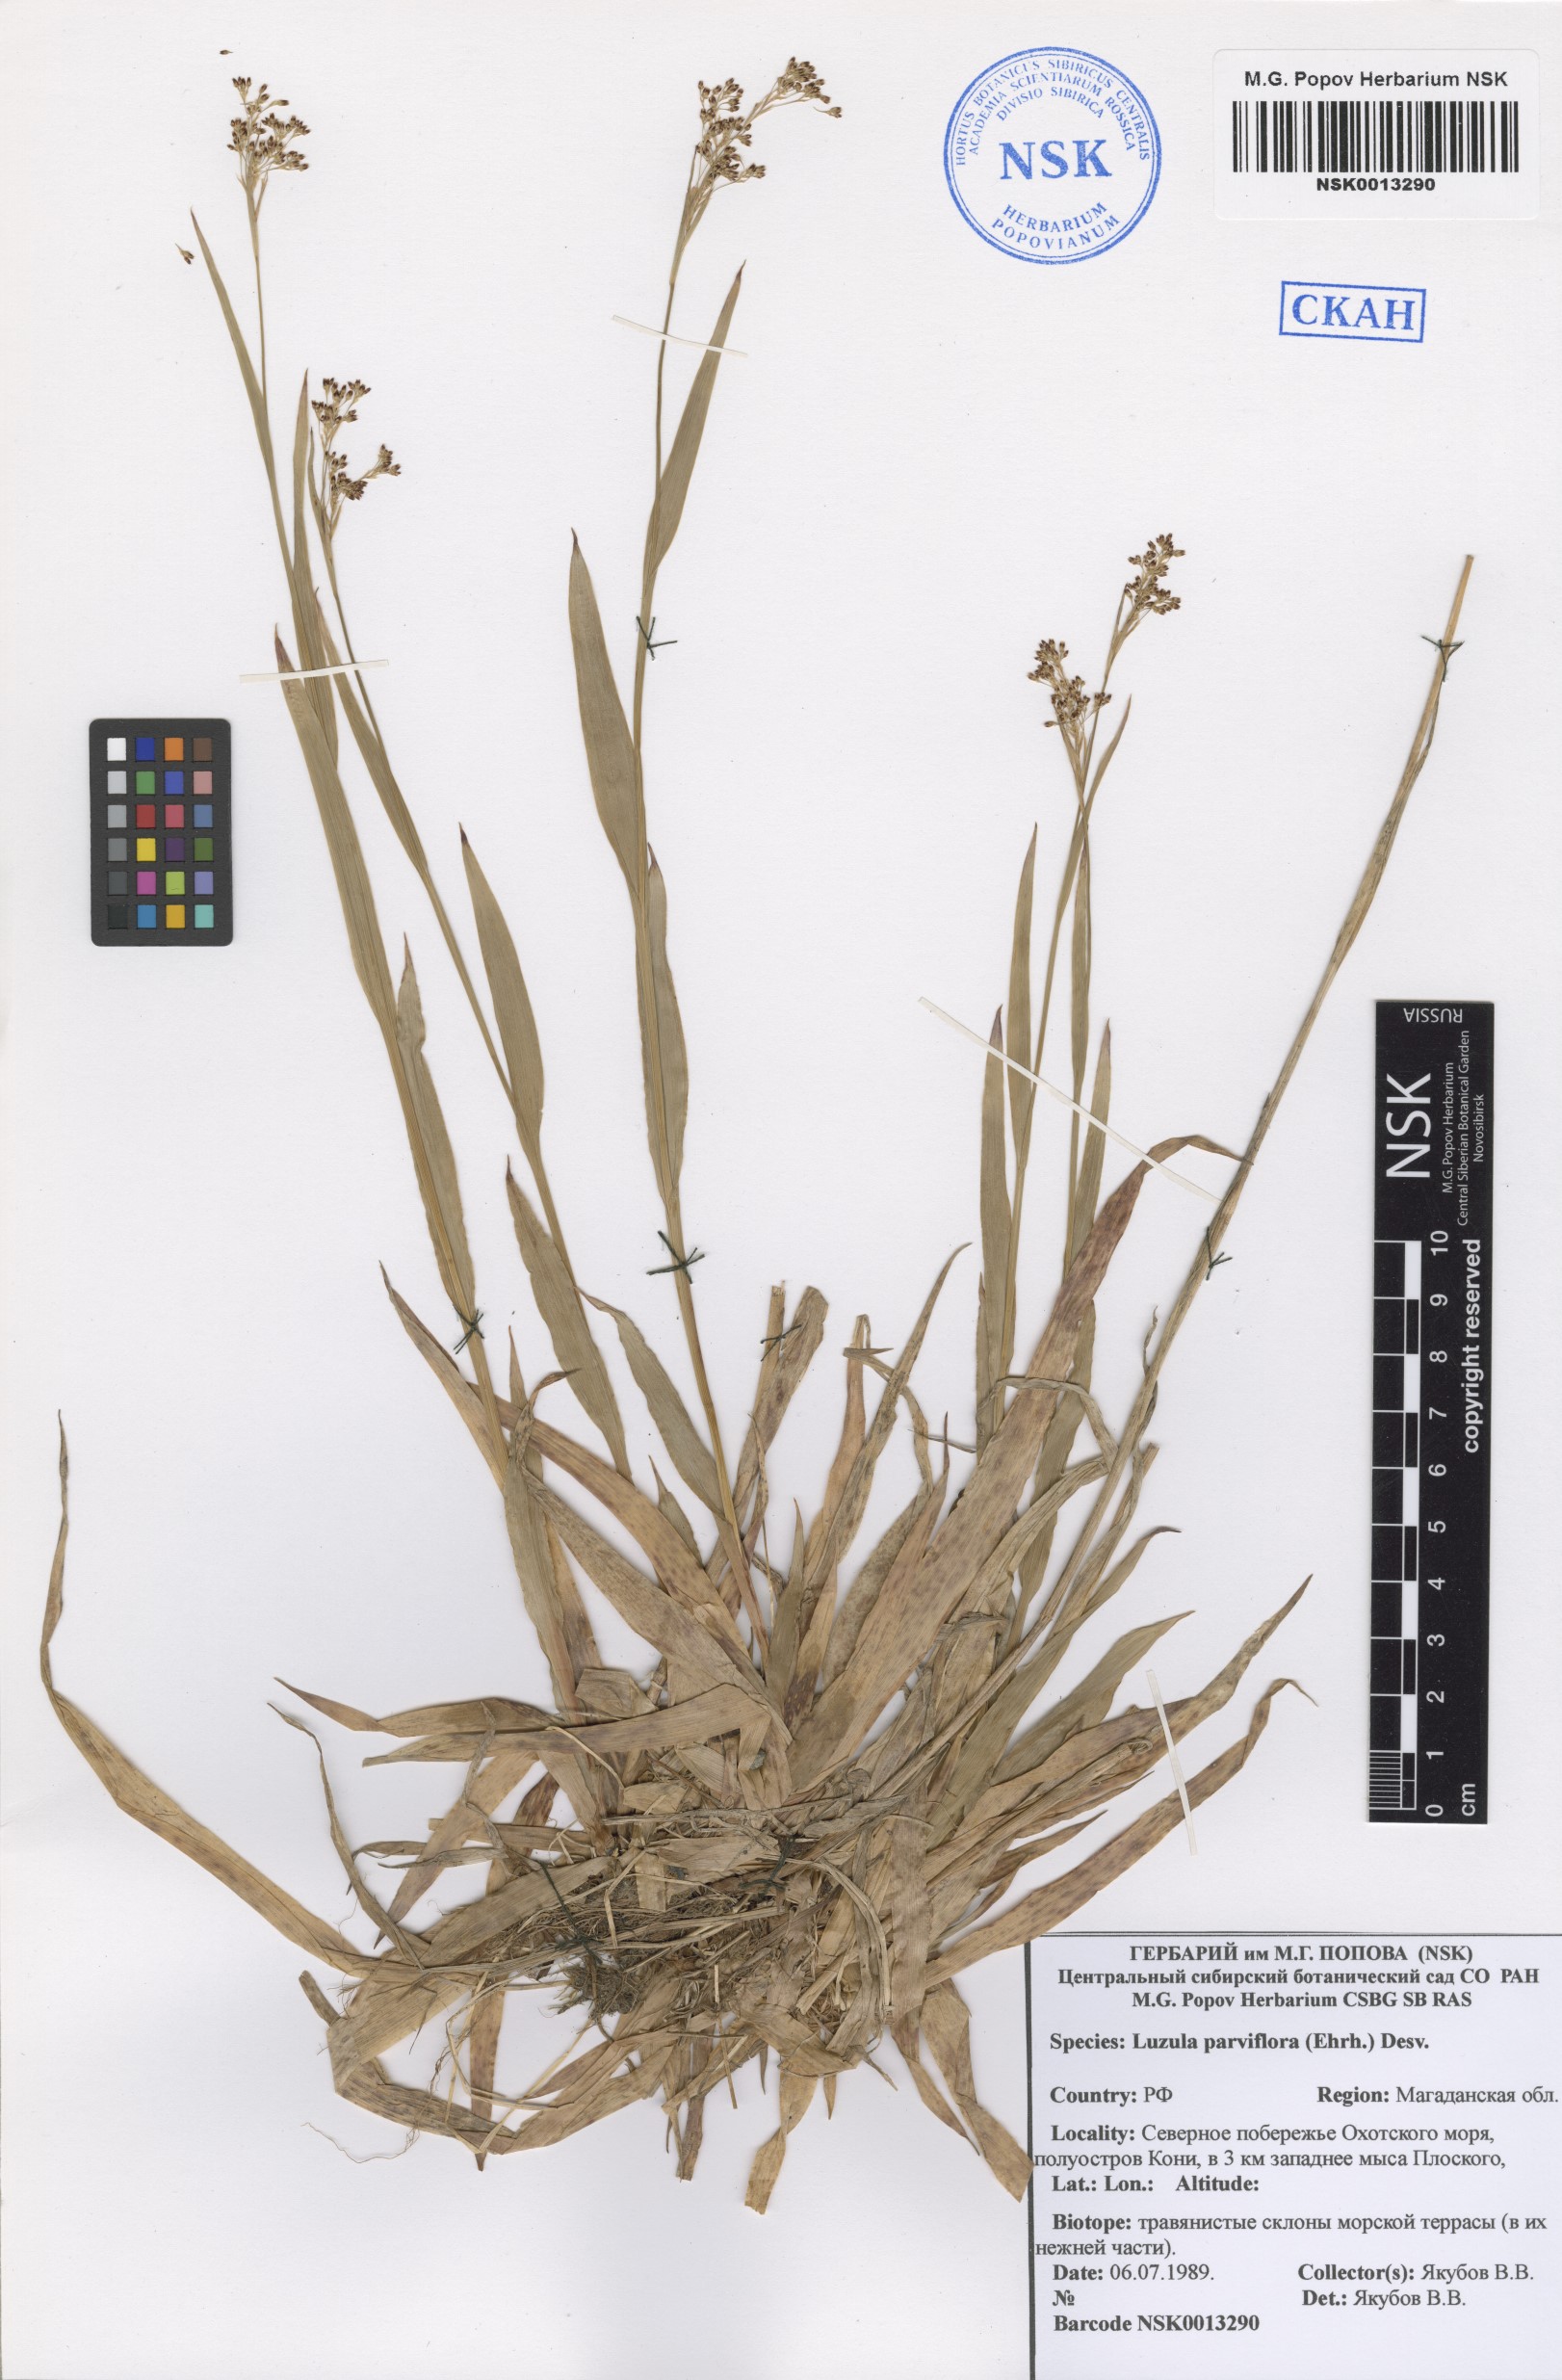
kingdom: Plantae
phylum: Tracheophyta
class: Liliopsida
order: Poales
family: Juncaceae
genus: Luzula
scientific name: Luzula parviflora
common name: Millet woodrush
